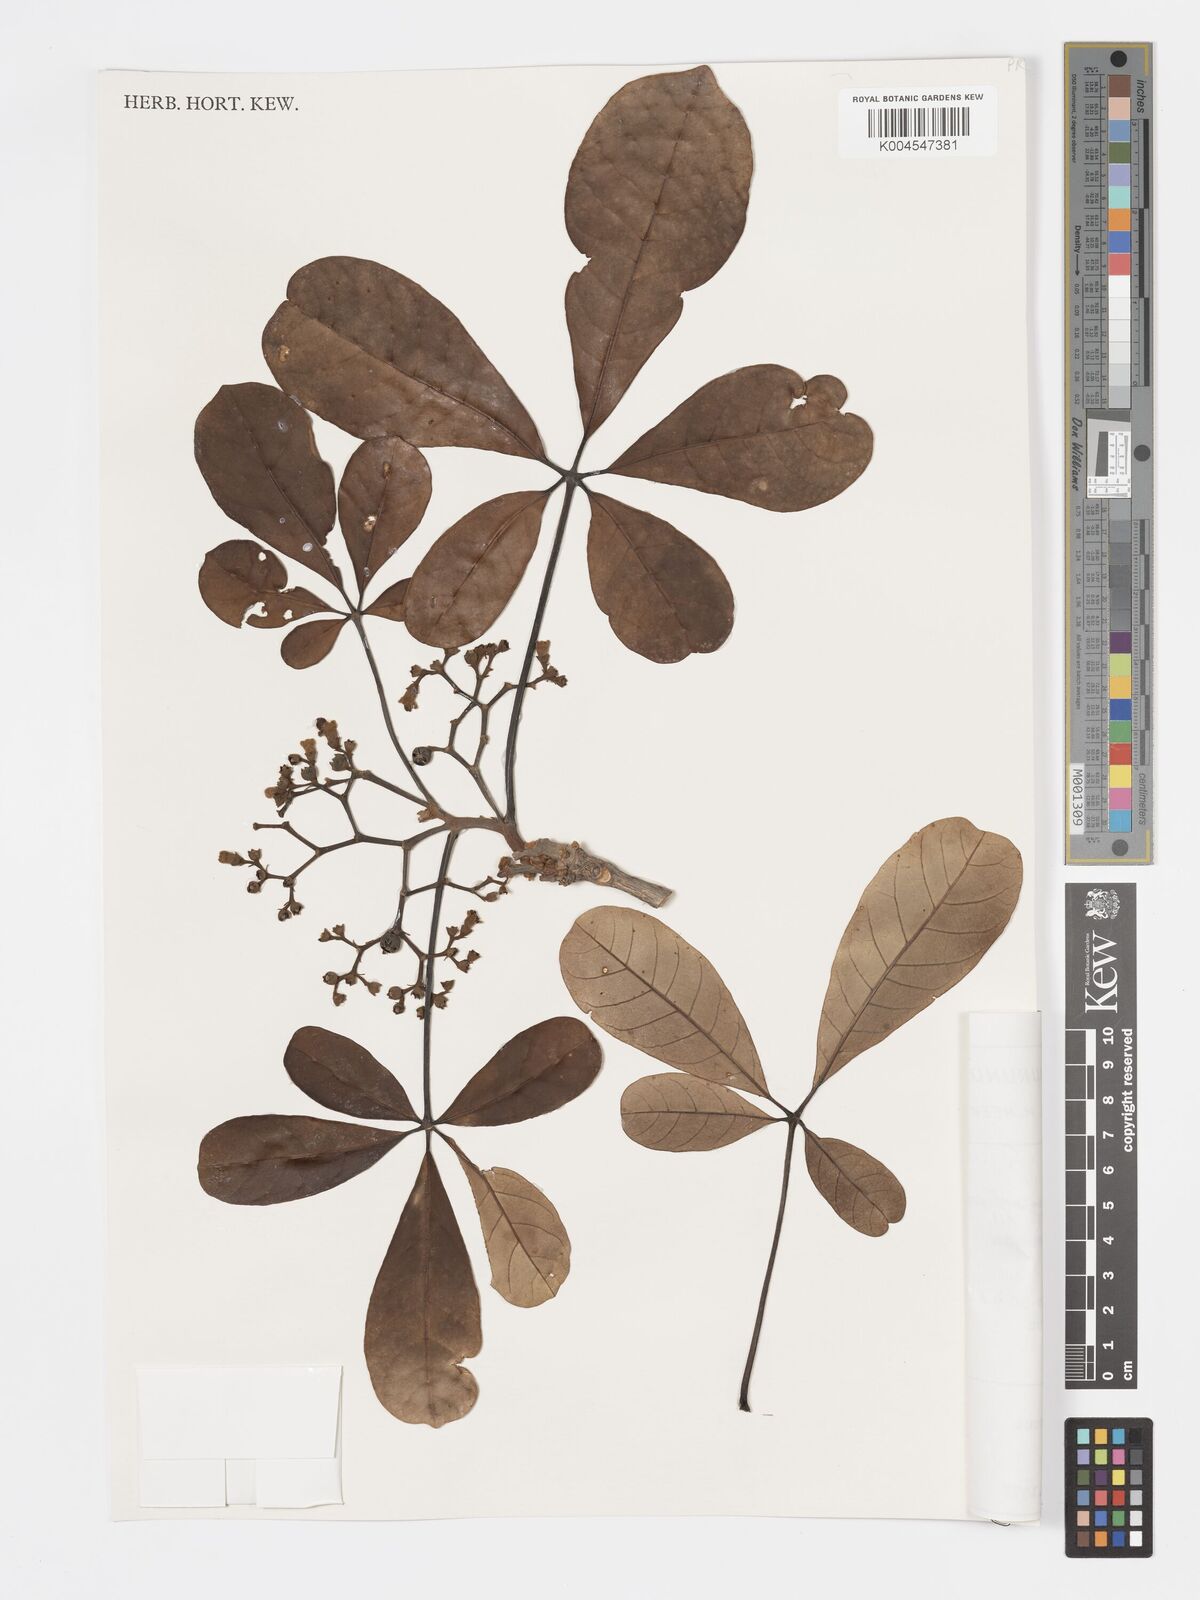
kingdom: Plantae
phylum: Tracheophyta
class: Magnoliopsida
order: Lamiales
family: Lamiaceae
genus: Vitex
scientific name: Vitex doniana
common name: Black plum
